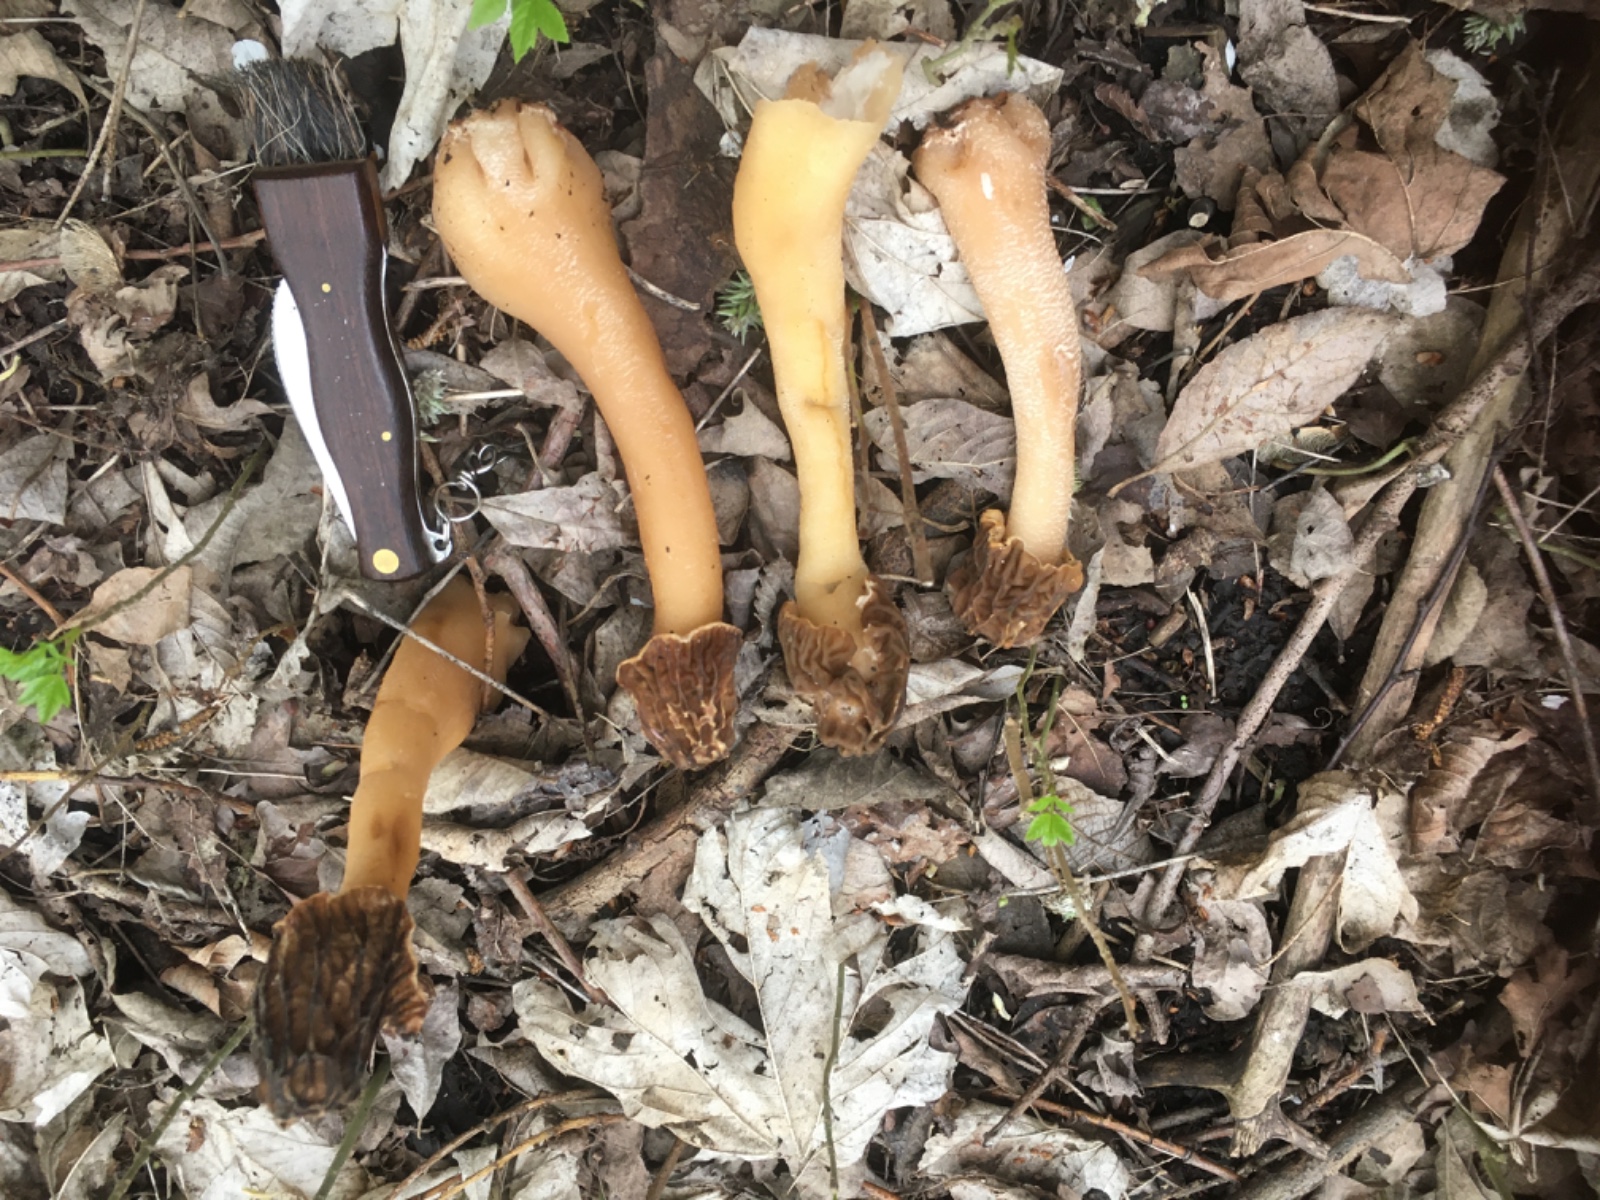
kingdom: Fungi
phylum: Ascomycota
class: Pezizomycetes
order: Pezizales
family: Morchellaceae
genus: Verpa
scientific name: Verpa bohemica
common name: rynket klokkemorkel
